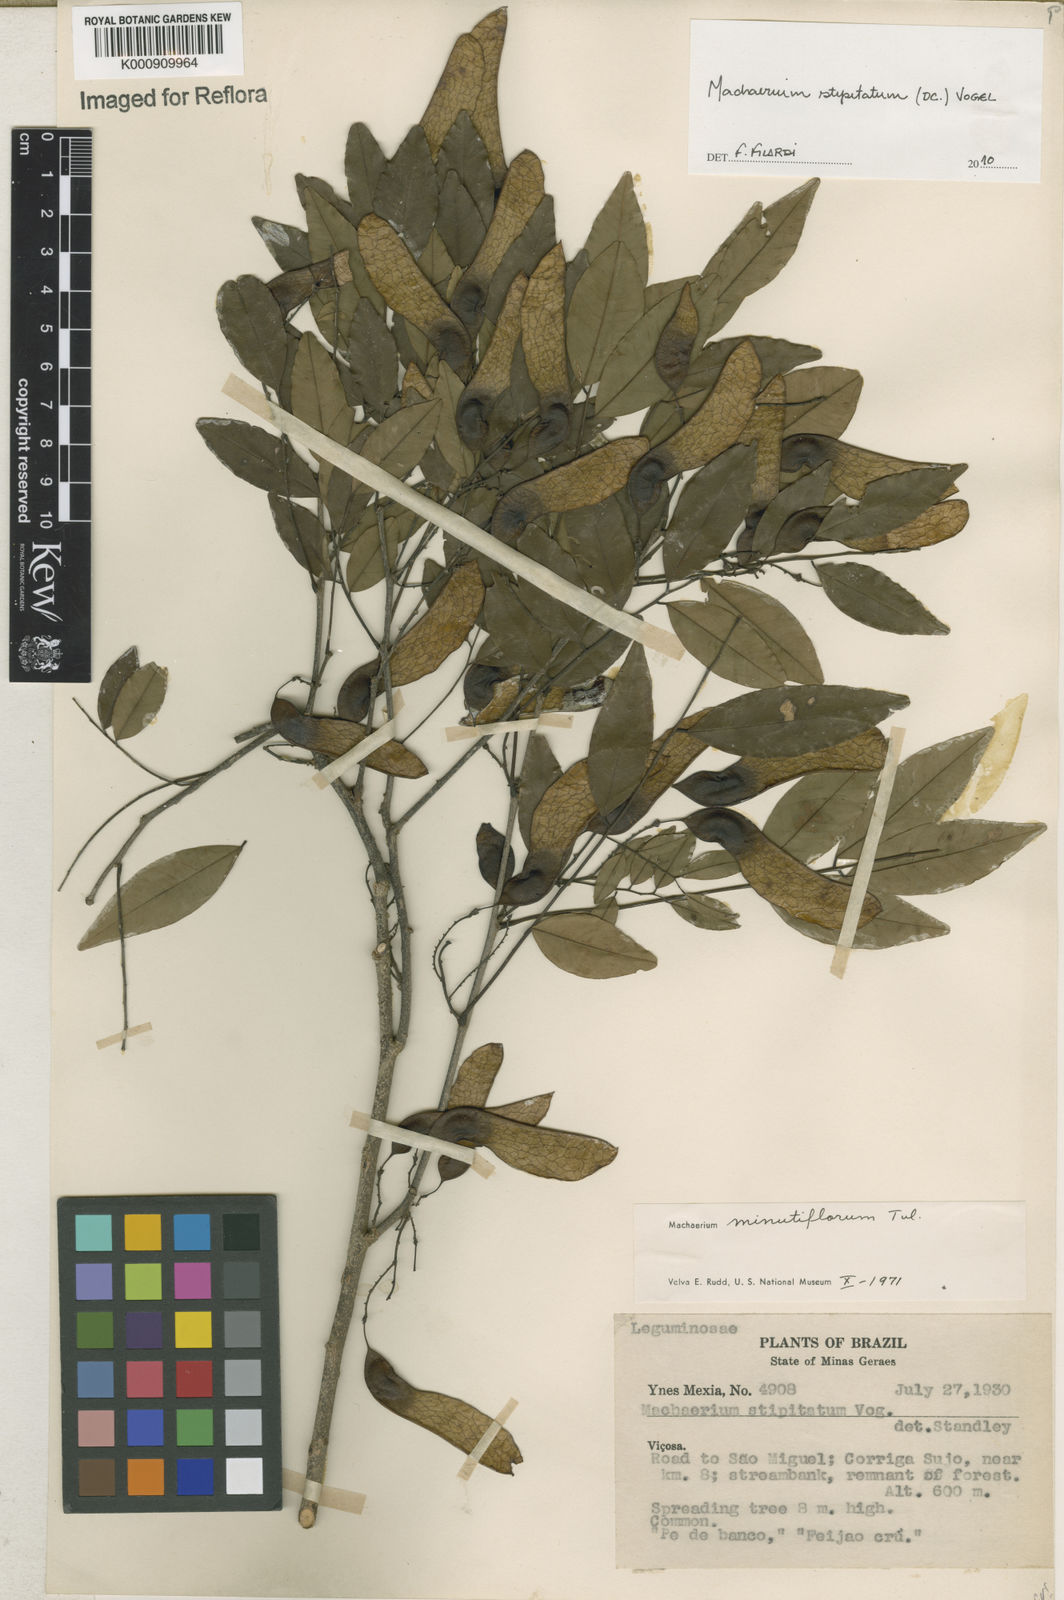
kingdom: Plantae
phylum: Tracheophyta
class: Magnoliopsida
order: Fabales
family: Fabaceae
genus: Machaerium
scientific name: Machaerium stipitatum
